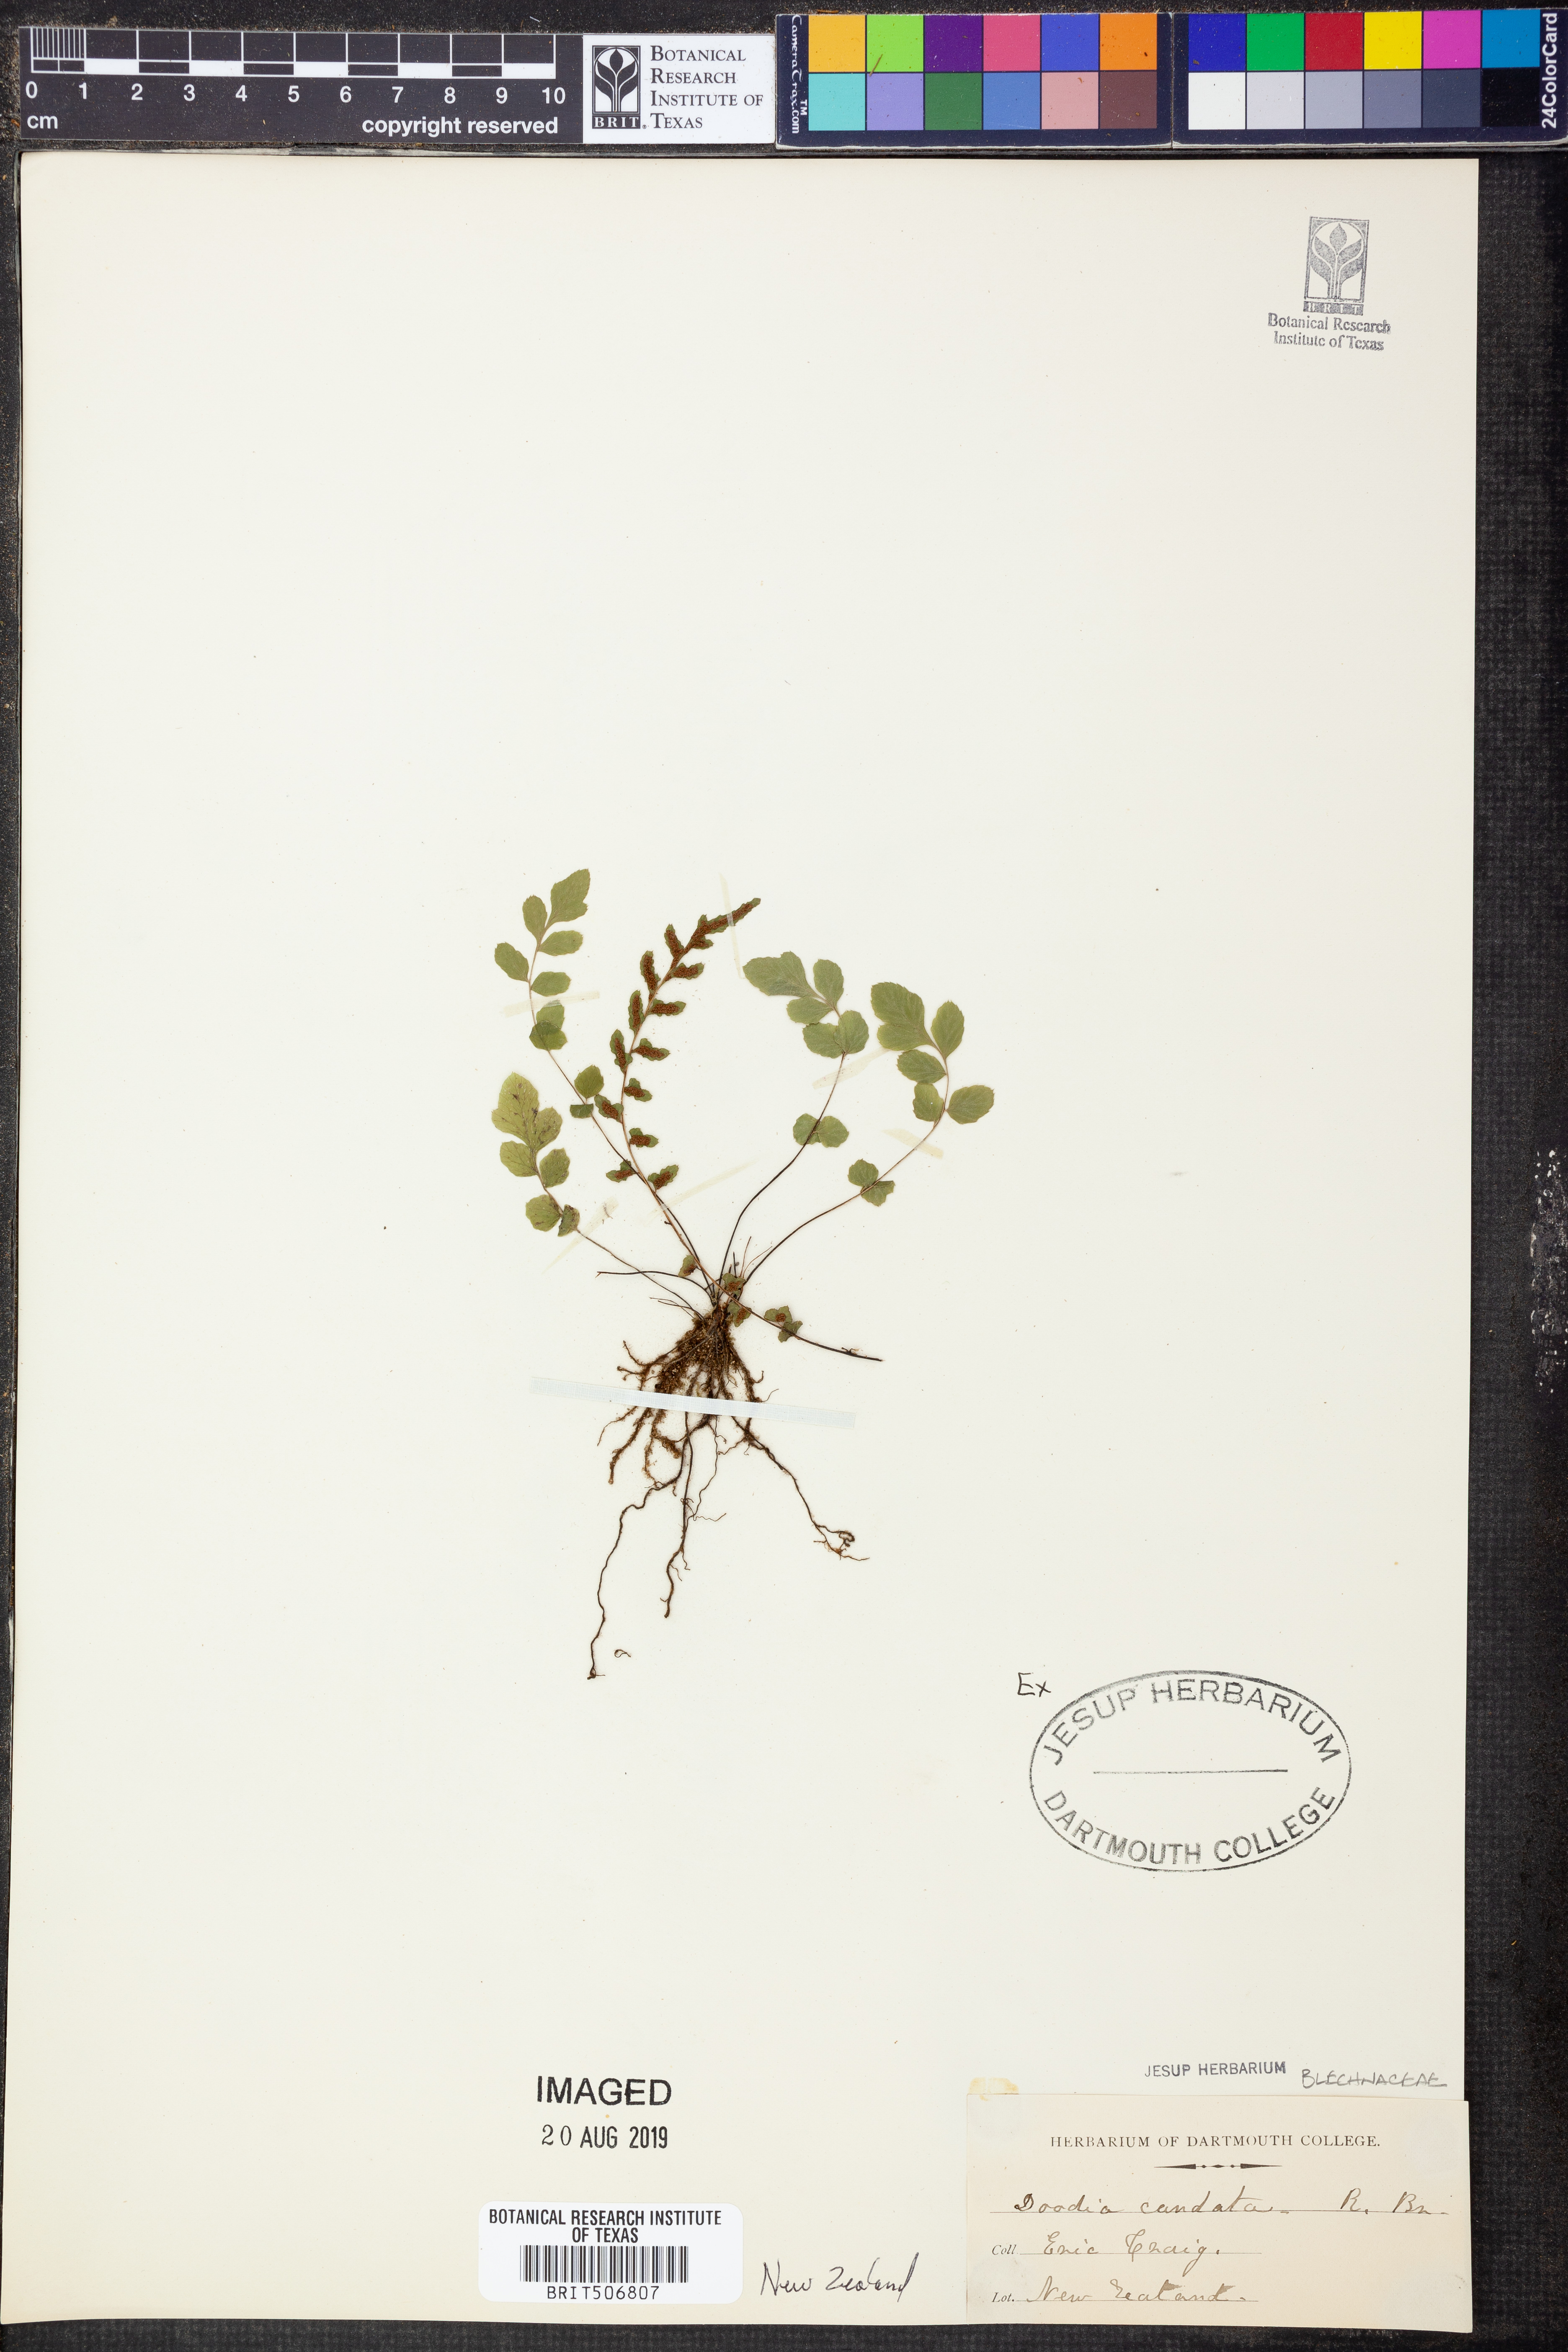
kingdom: Plantae
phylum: Tracheophyta
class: Polypodiopsida
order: Polypodiales
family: Blechnaceae
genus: Doodia
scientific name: Doodia caudata
